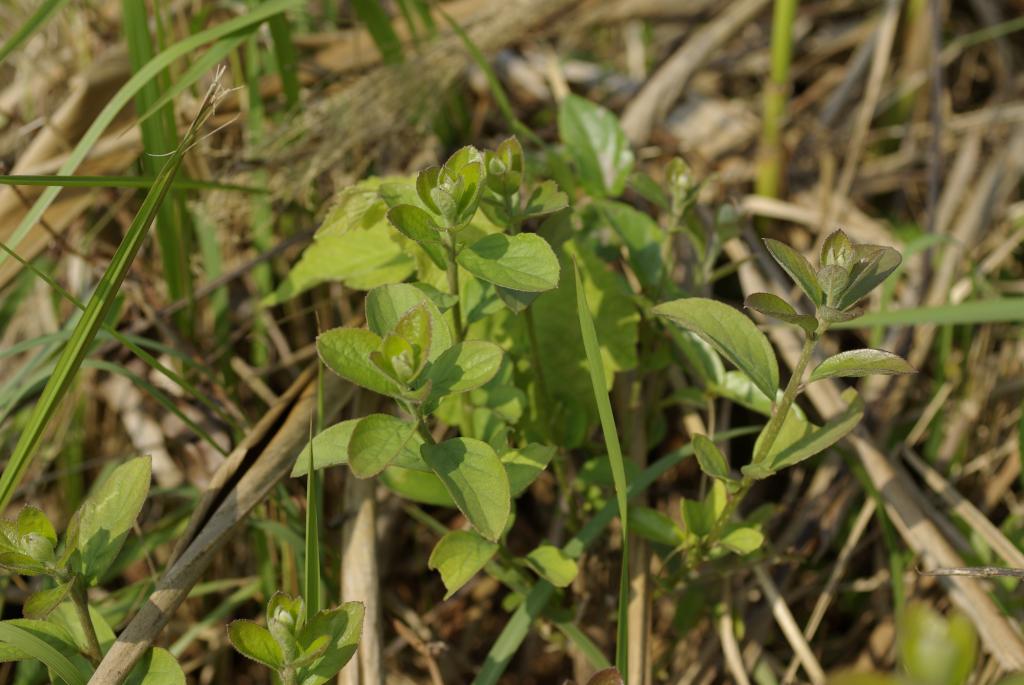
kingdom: Plantae
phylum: Tracheophyta
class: Magnoliopsida
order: Ericales
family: Symplocaceae
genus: Symplocos
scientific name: Symplocos paniculata
